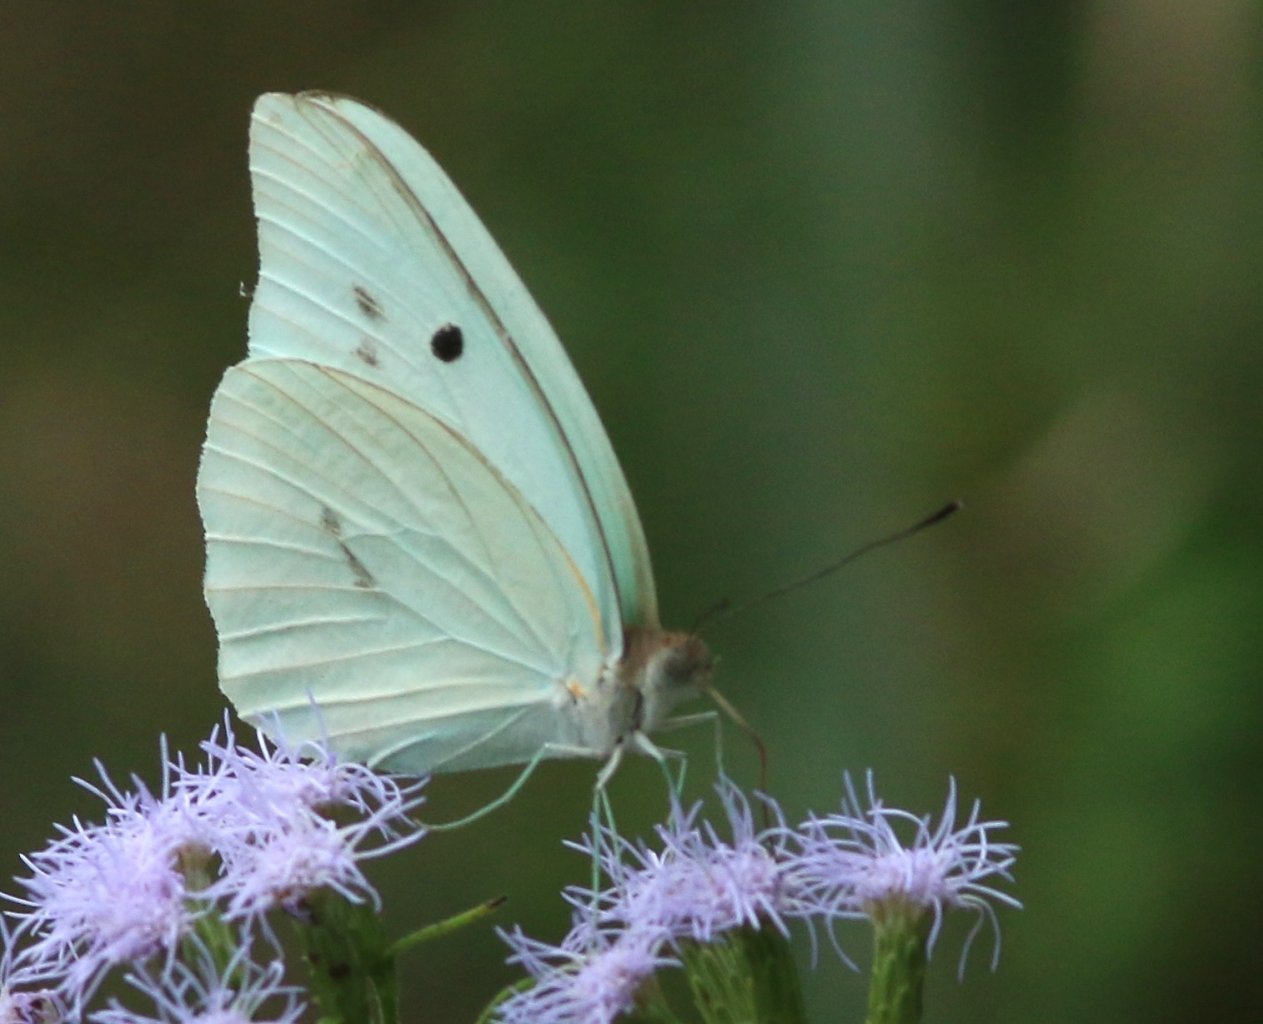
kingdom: Animalia
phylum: Arthropoda
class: Insecta
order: Lepidoptera
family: Pieridae
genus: Ganyra
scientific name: Ganyra josephina
